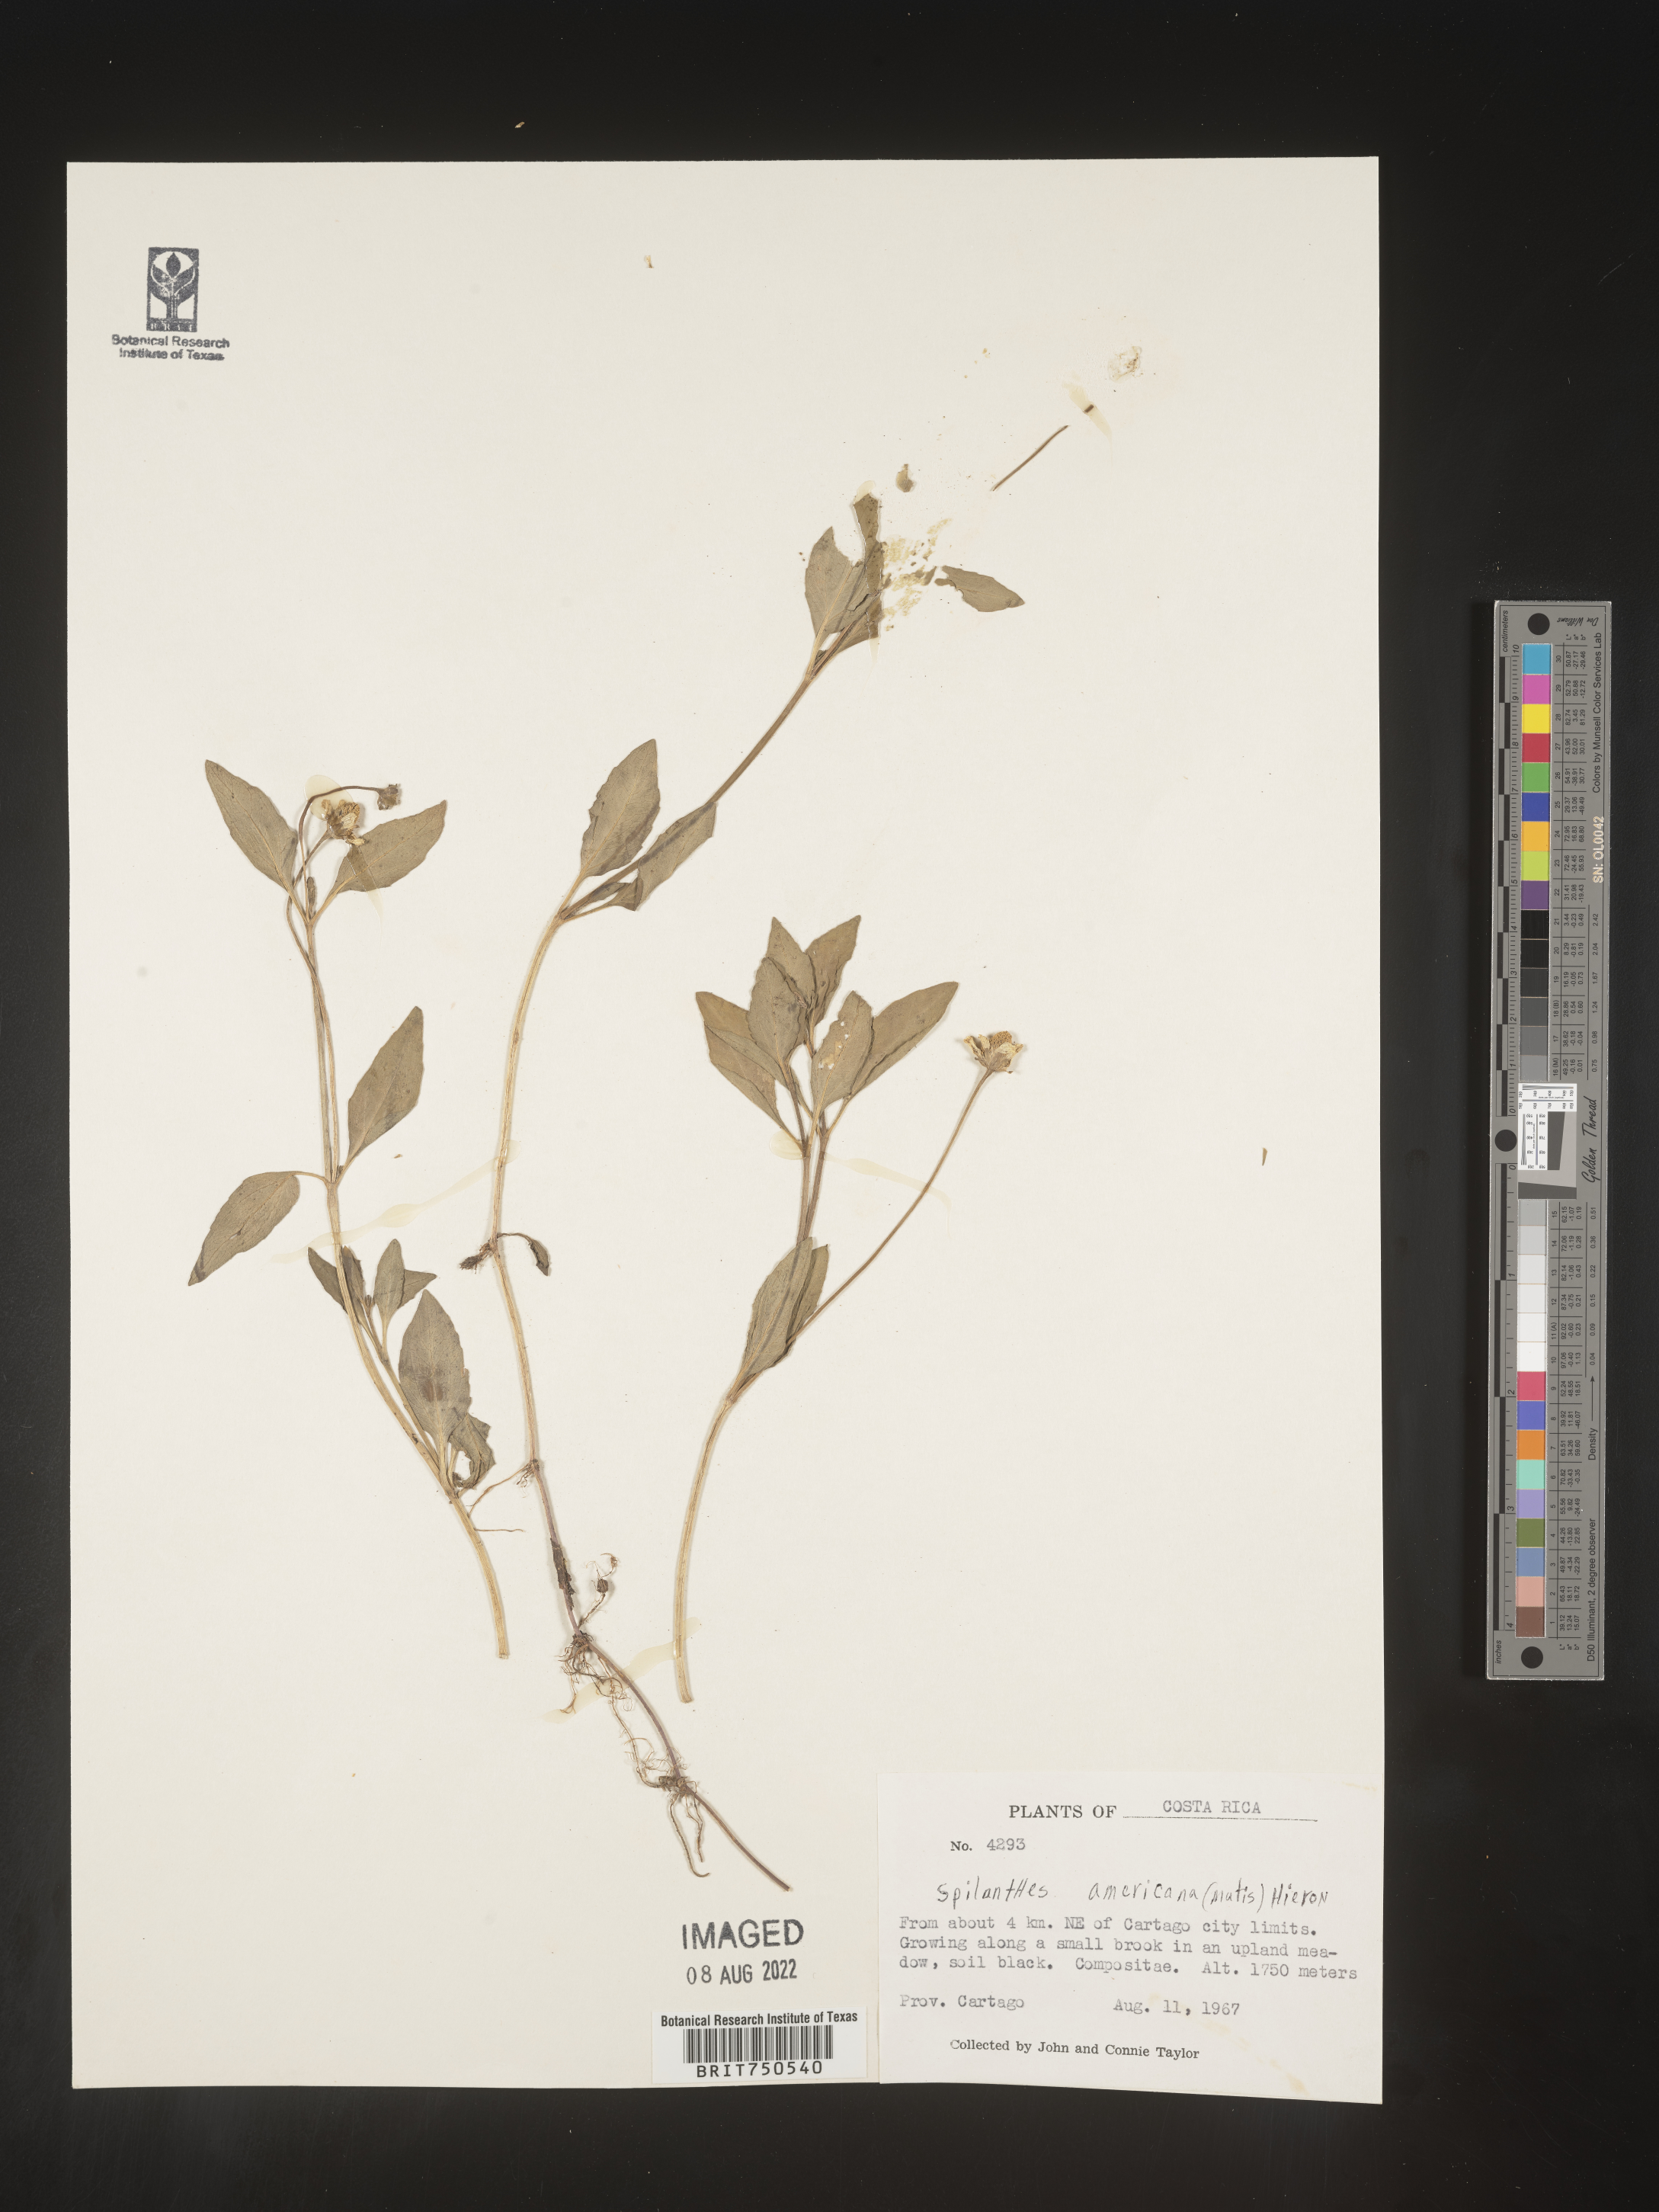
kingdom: Plantae
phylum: Tracheophyta
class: Magnoliopsida
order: Asterales
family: Asteraceae
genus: Spilanthes
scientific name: Spilanthes
